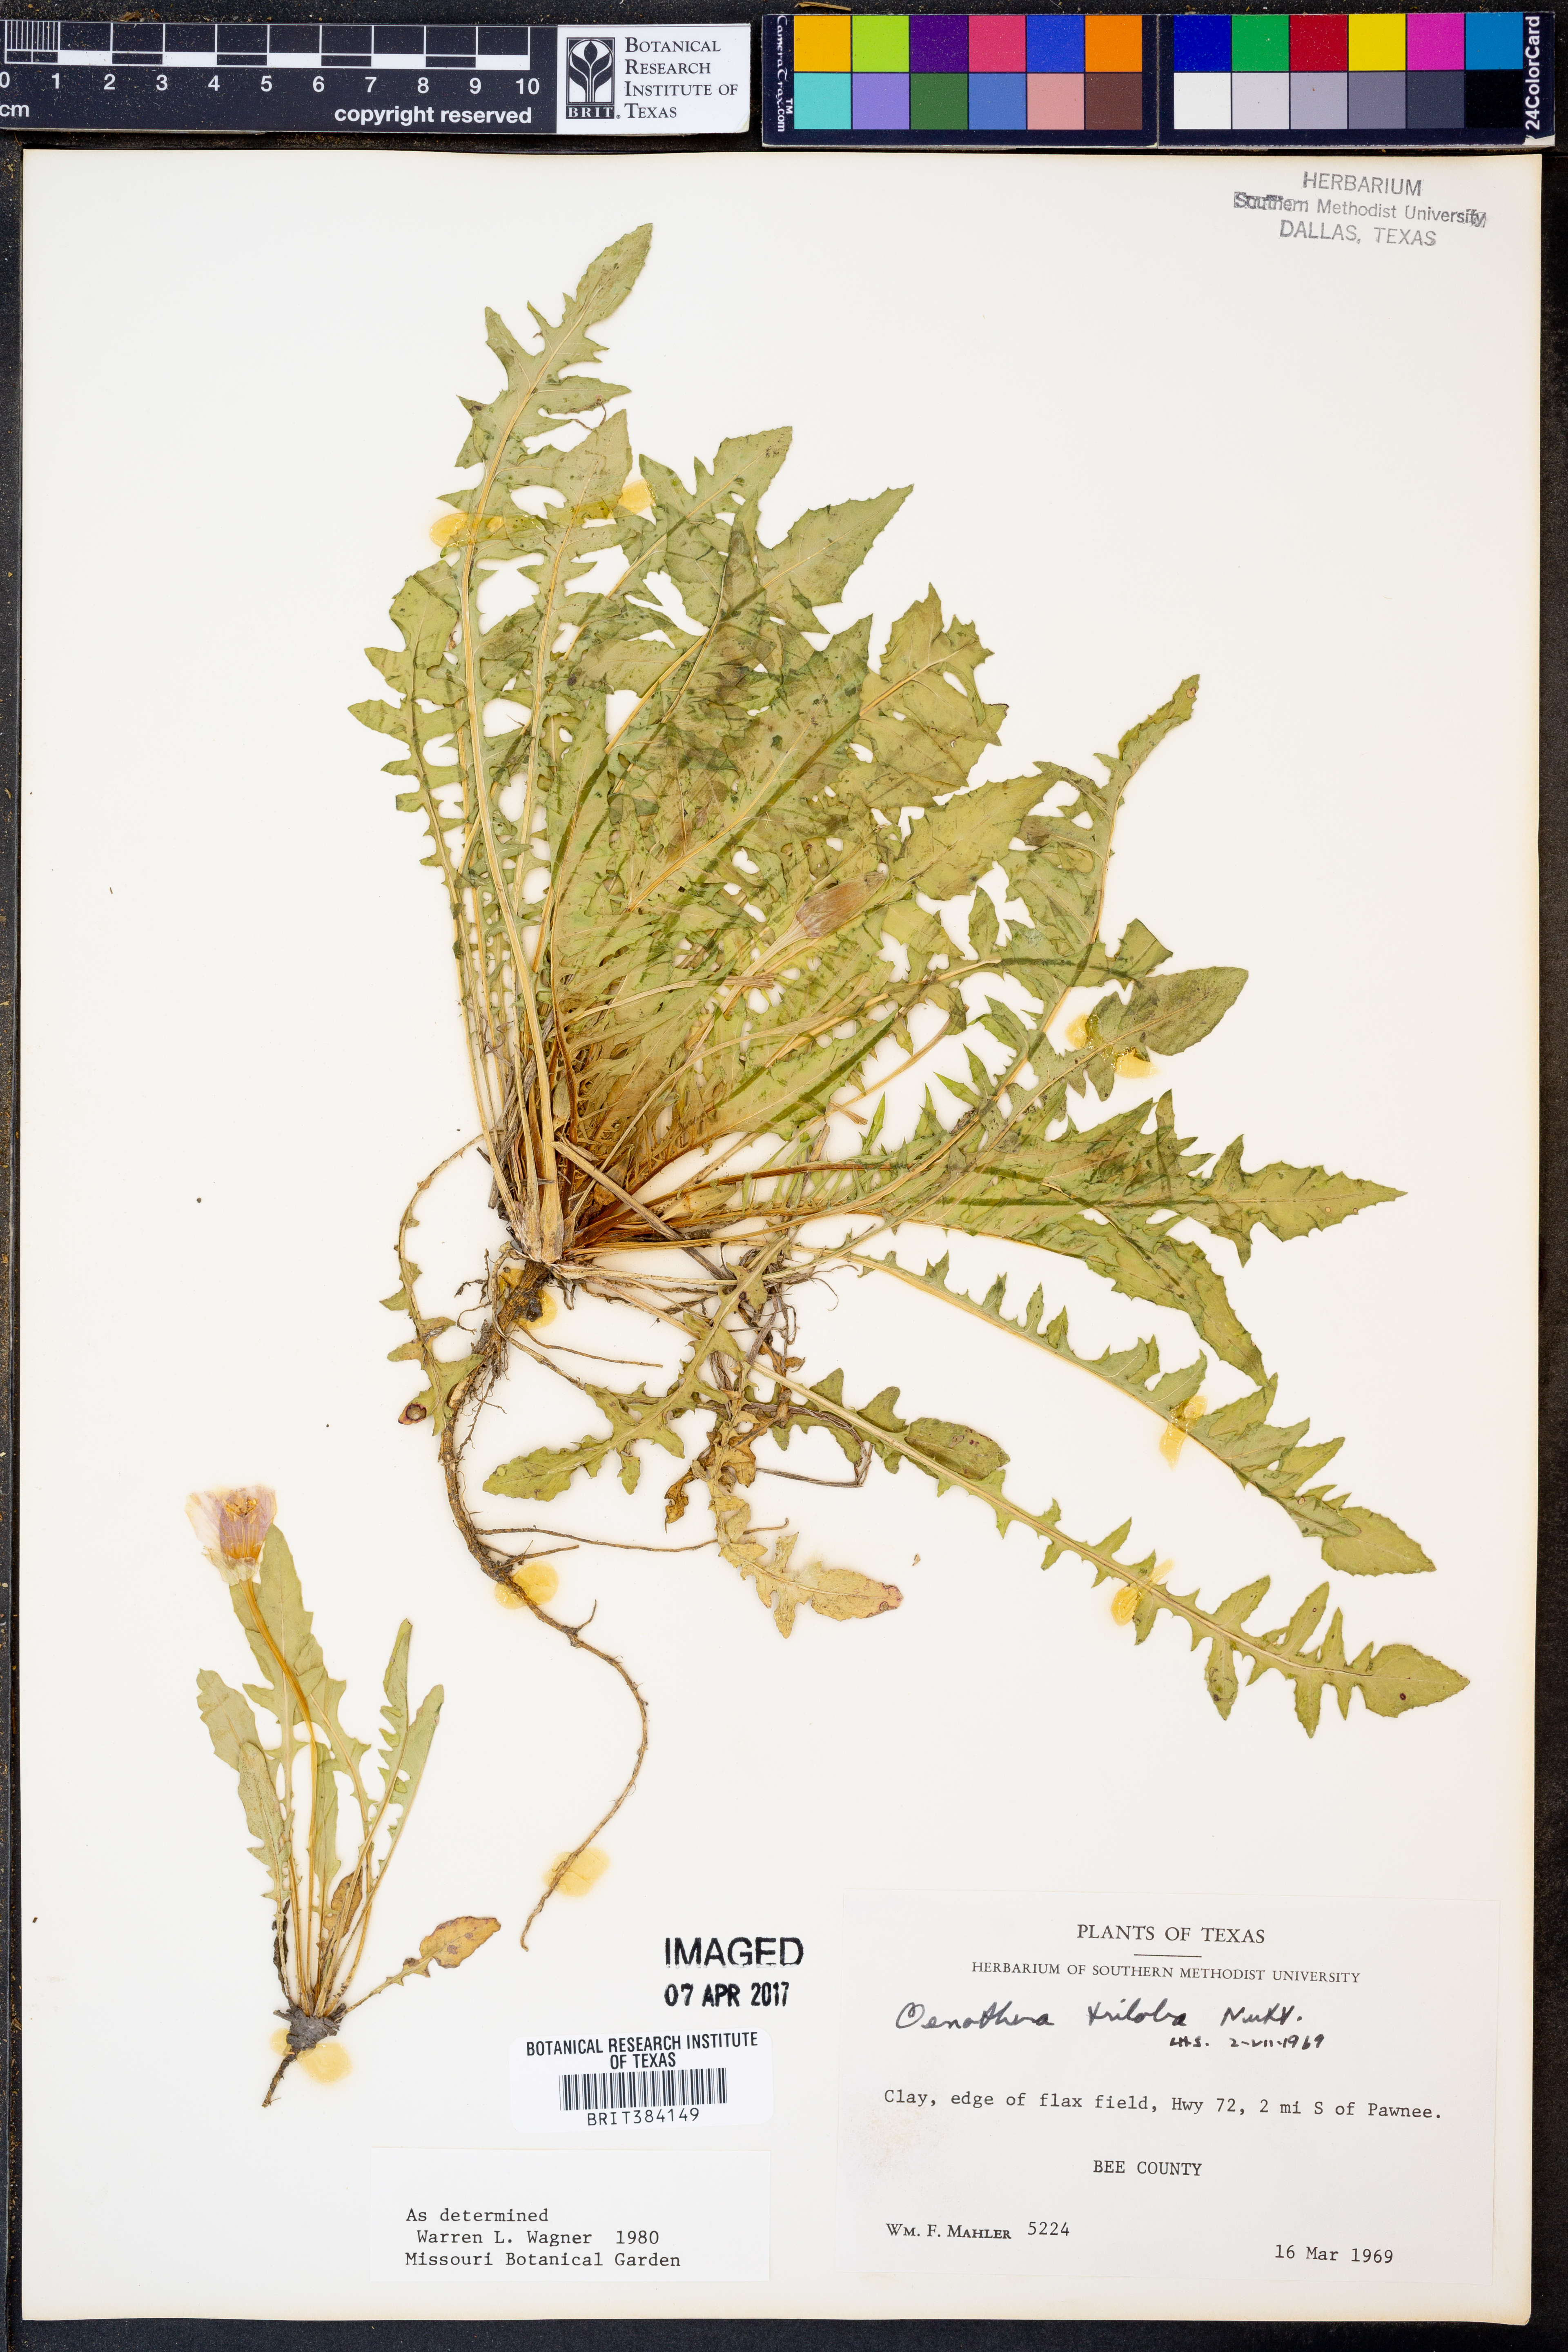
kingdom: Plantae
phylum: Tracheophyta
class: Magnoliopsida
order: Myrtales
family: Onagraceae
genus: Oenothera
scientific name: Oenothera triloba
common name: Sessile evening-primrose
